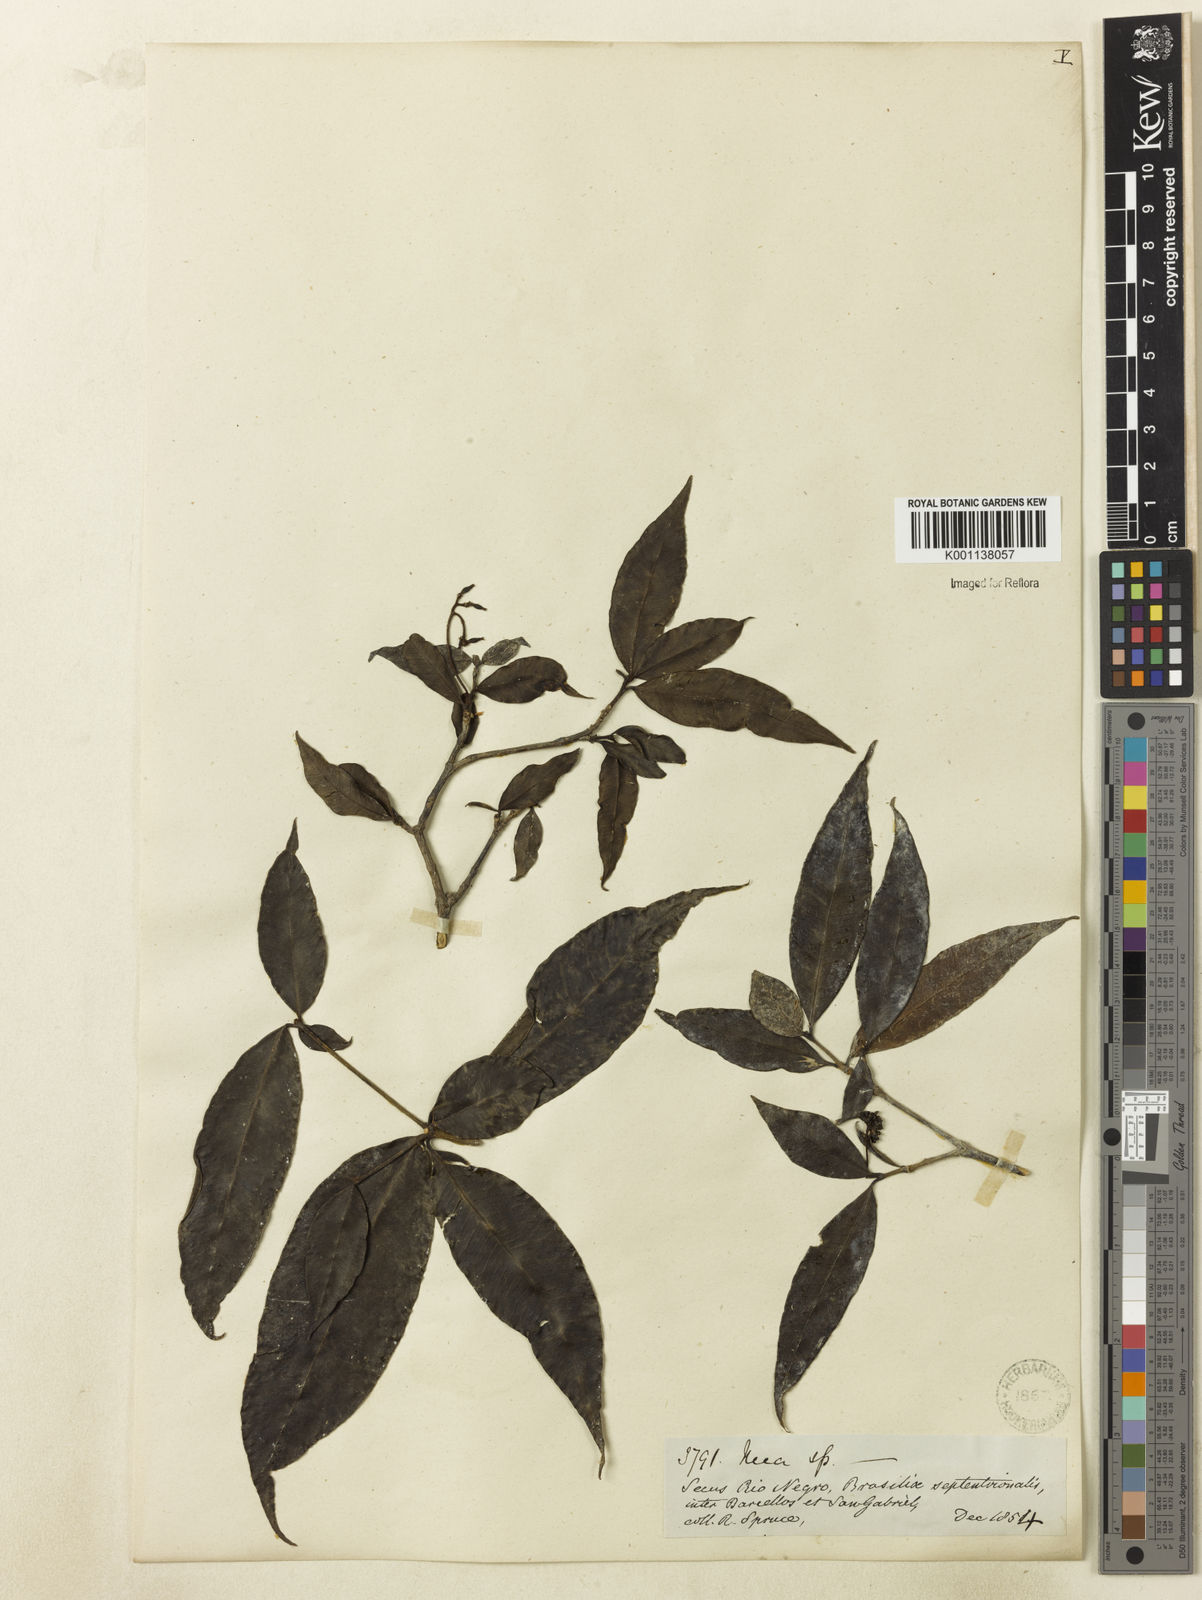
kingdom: Plantae
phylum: Tracheophyta
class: Magnoliopsida
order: Caryophyllales
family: Nyctaginaceae
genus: Neea
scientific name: Neea
